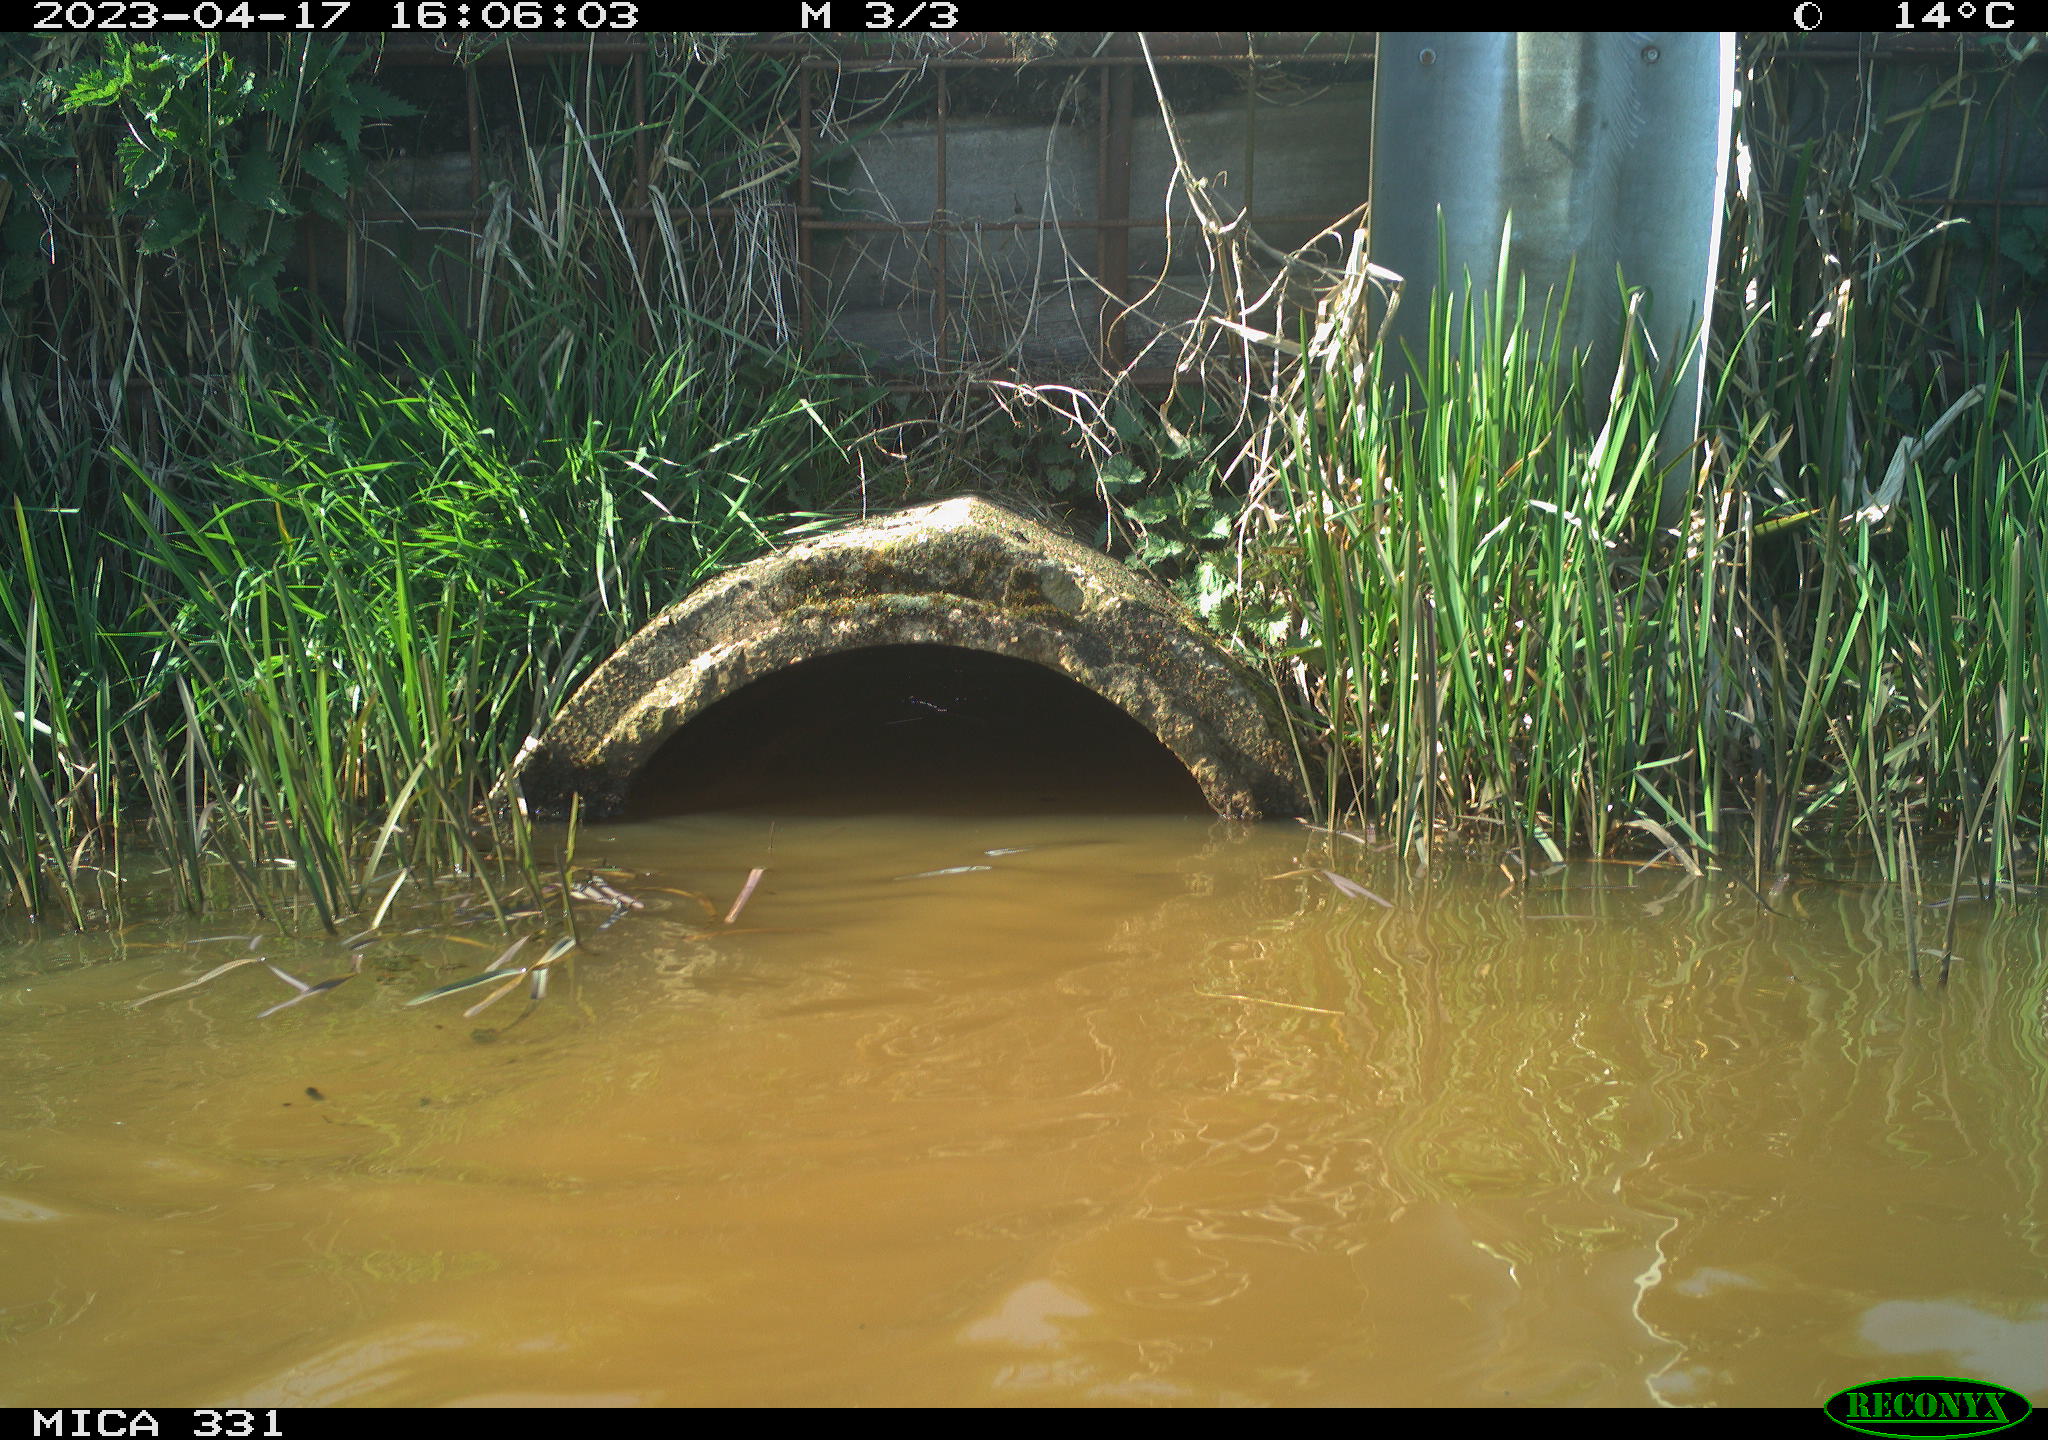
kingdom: Animalia
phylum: Chordata
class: Aves
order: Anseriformes
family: Anatidae
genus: Anas
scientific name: Anas
